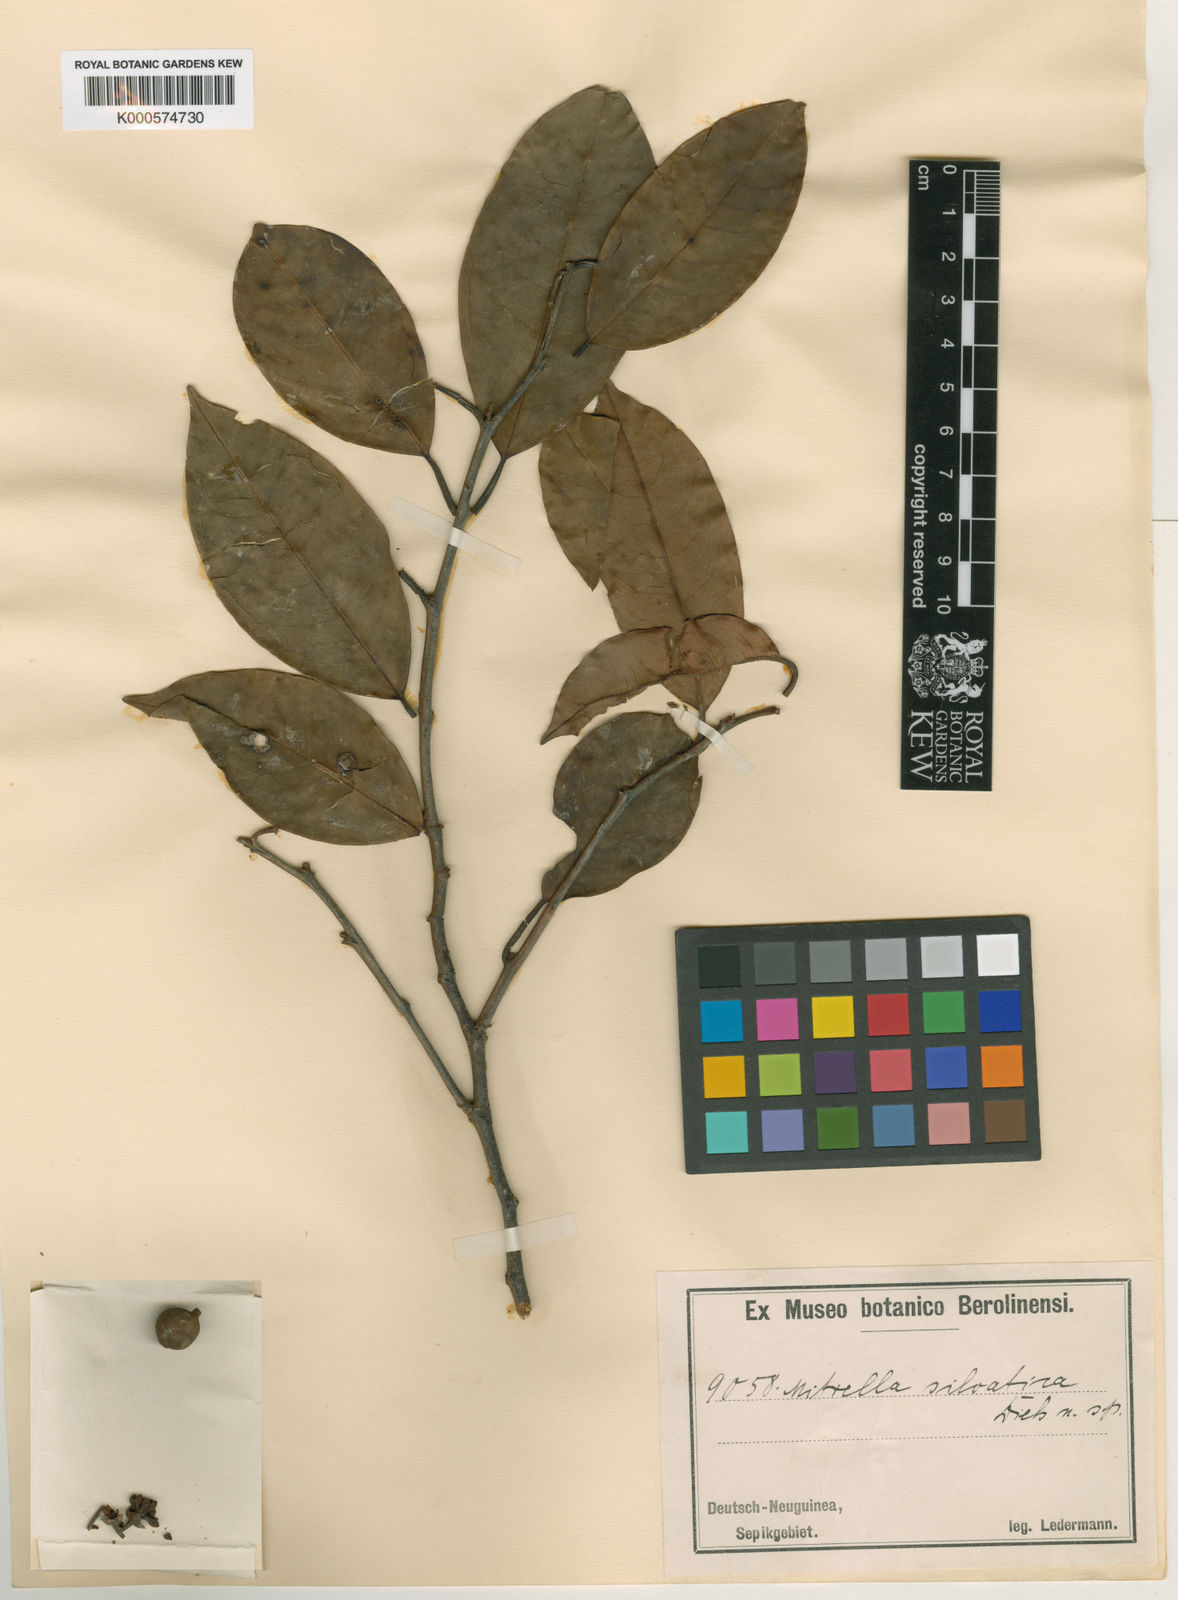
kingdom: Plantae
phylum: Tracheophyta
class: Magnoliopsida
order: Magnoliales
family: Annonaceae
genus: Mitrella
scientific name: Mitrella silvatica
